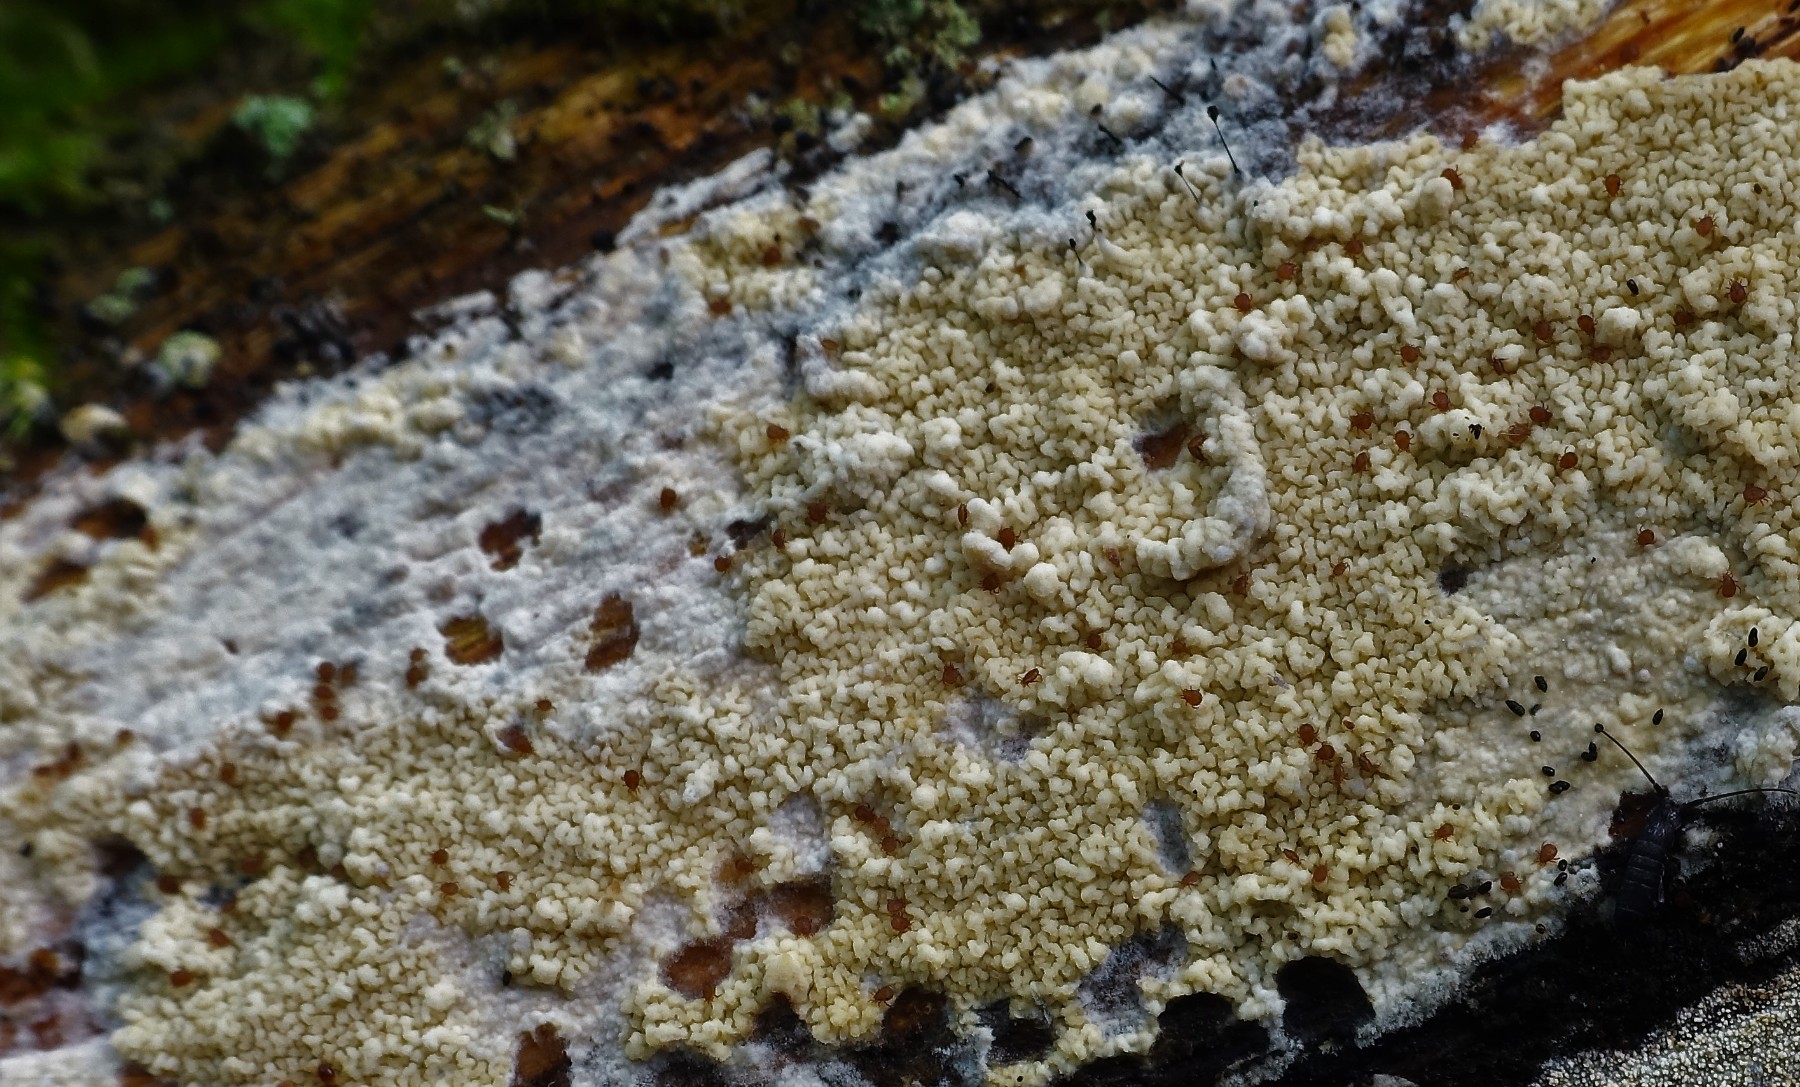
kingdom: Fungi
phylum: Basidiomycota
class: Agaricomycetes
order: Polyporales
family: Irpicaceae
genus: Crystallicutis
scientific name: Crystallicutis serpens
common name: gråviolet barkhinde
